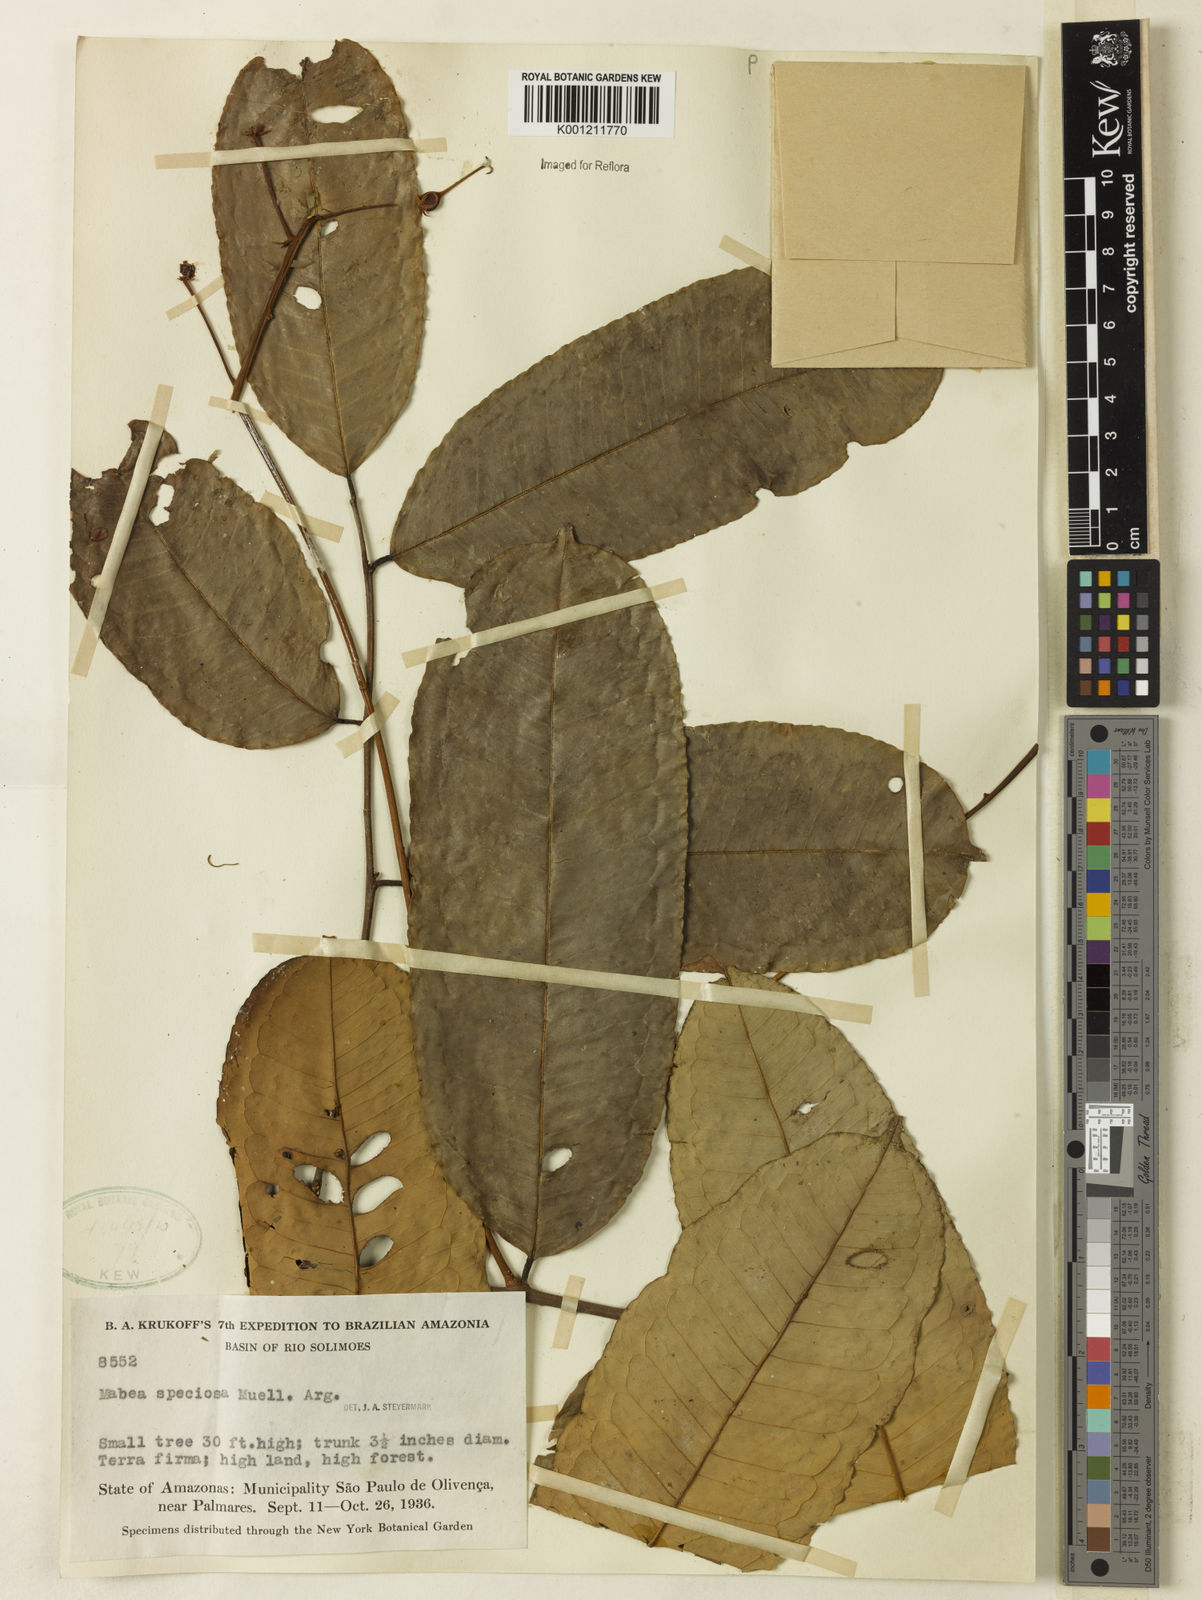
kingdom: Plantae
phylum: Tracheophyta
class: Magnoliopsida
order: Malpighiales
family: Euphorbiaceae
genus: Mabea
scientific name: Mabea
